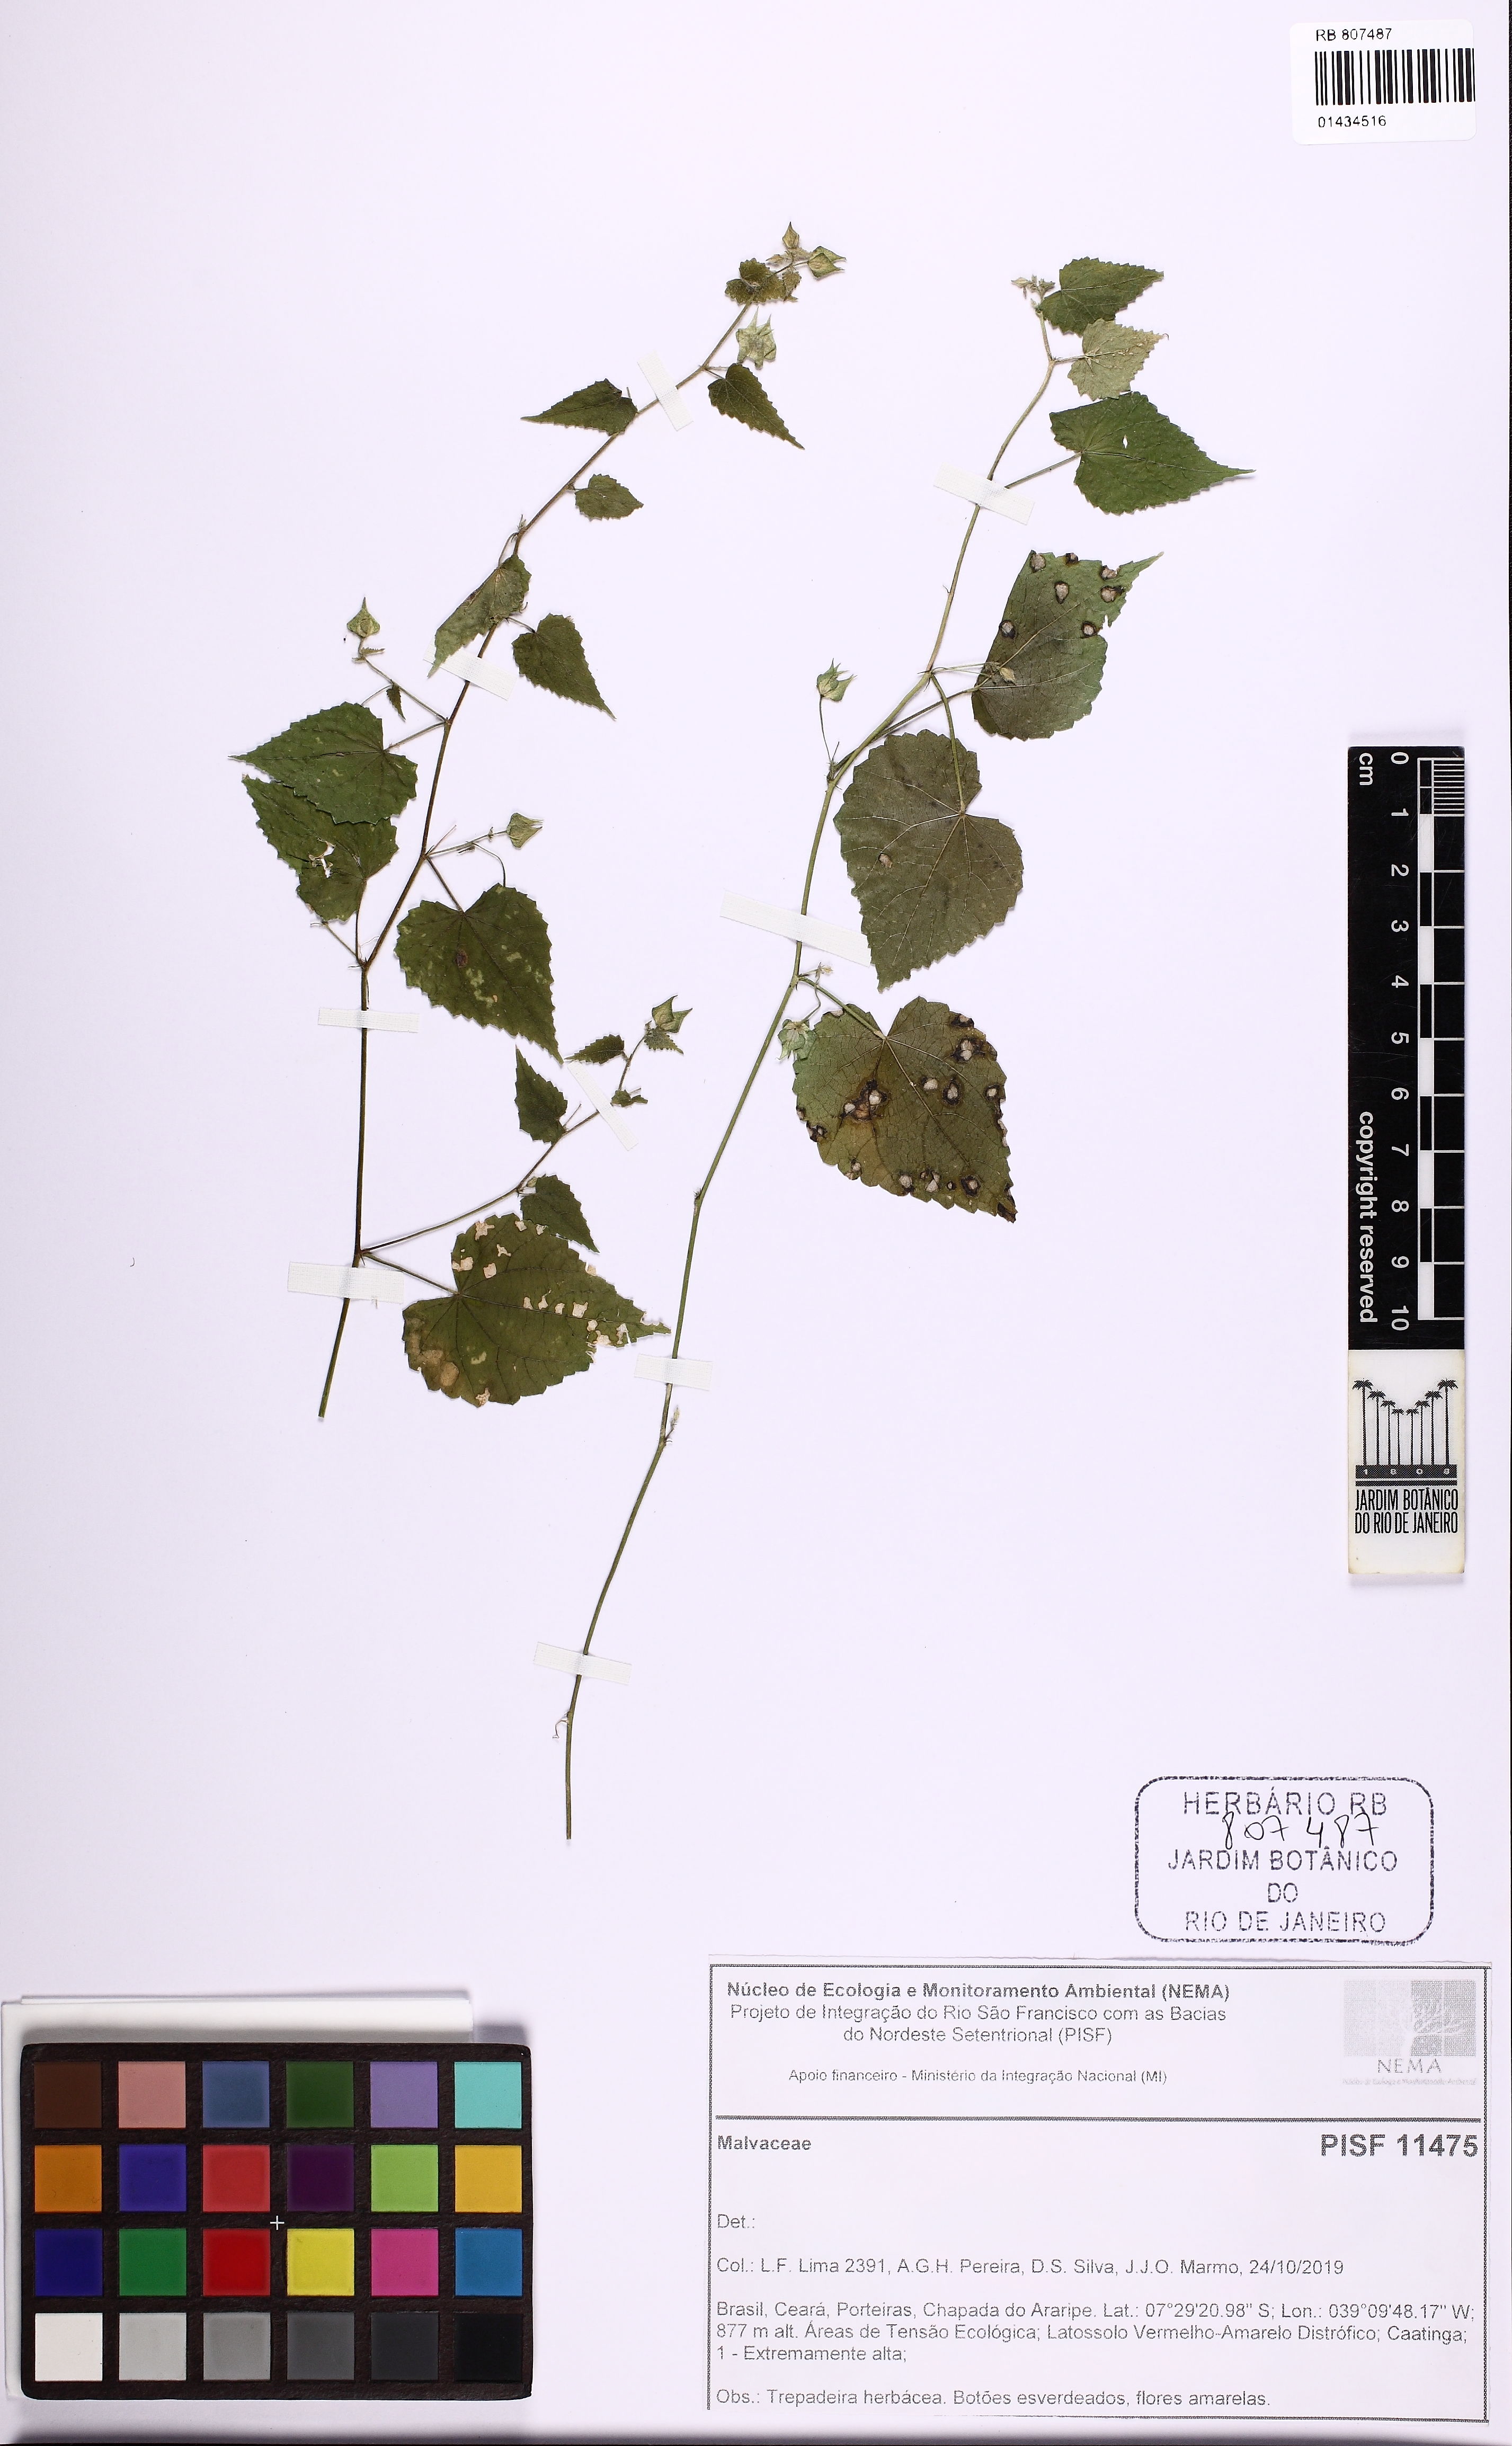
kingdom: Plantae
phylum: Tracheophyta
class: Magnoliopsida
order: Malvales
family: Malvaceae
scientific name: Malvaceae
